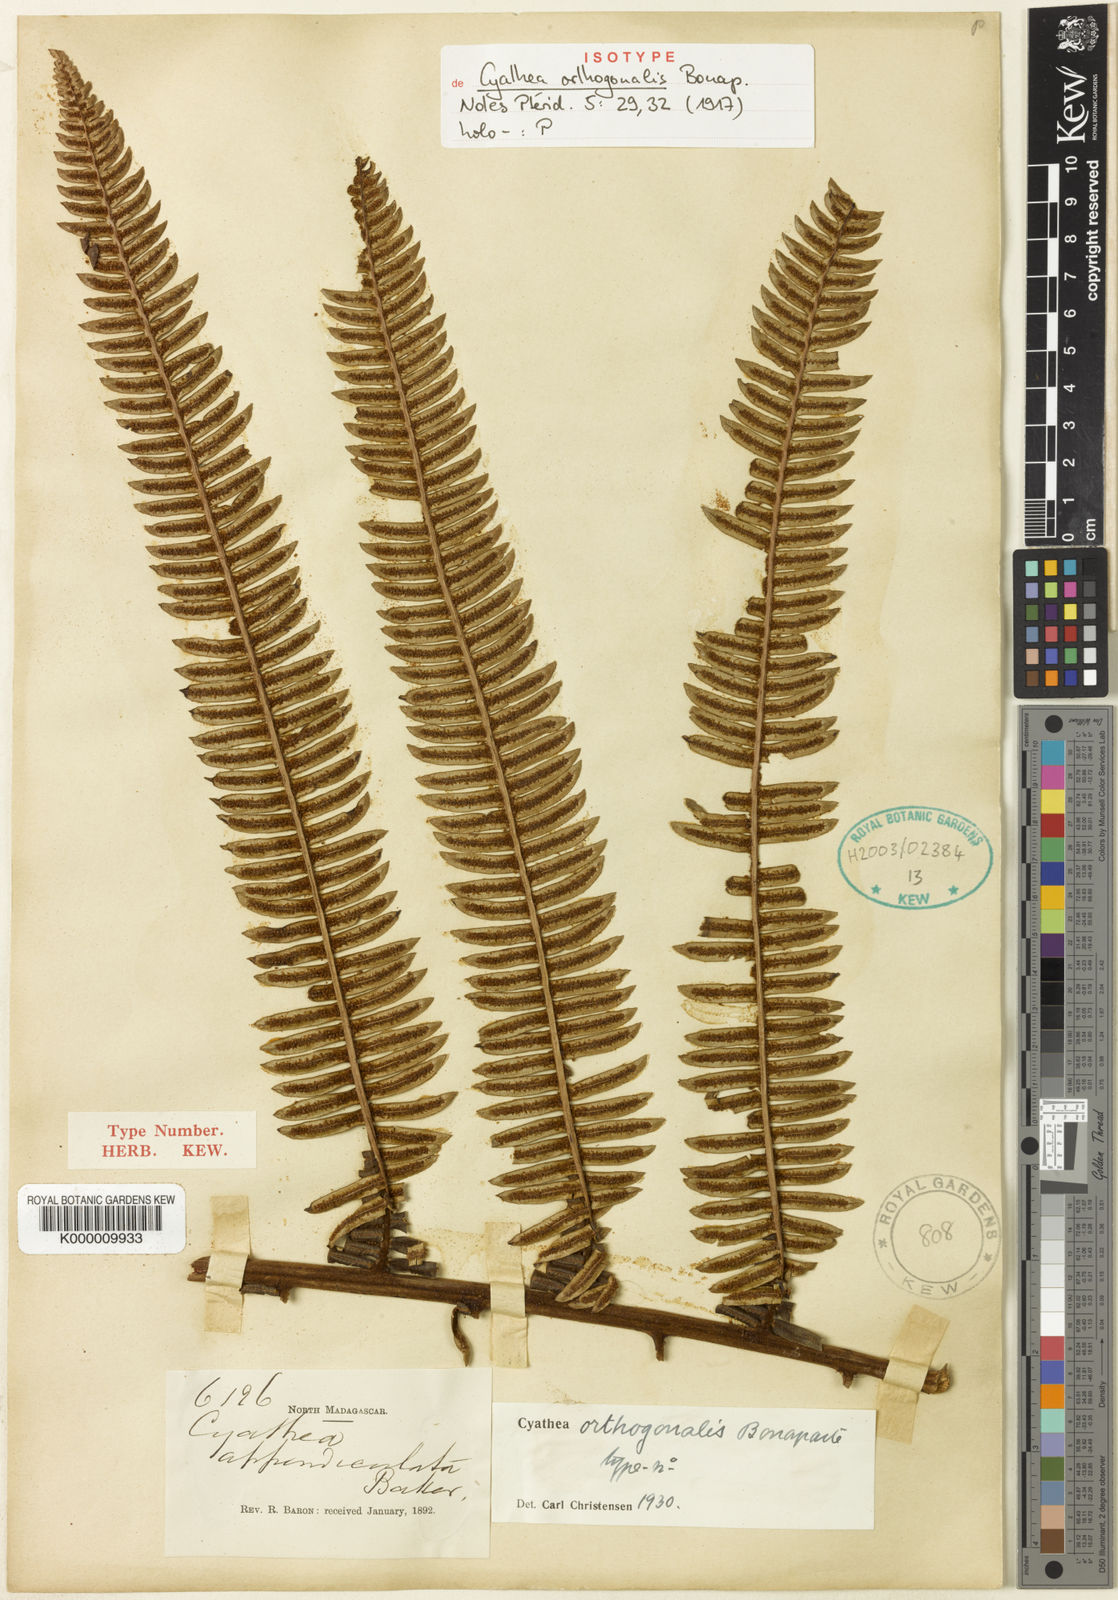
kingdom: Plantae
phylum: Tracheophyta
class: Polypodiopsida
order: Cyatheales
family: Cyatheaceae
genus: Alsophila
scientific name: Alsophila orthogonalis
